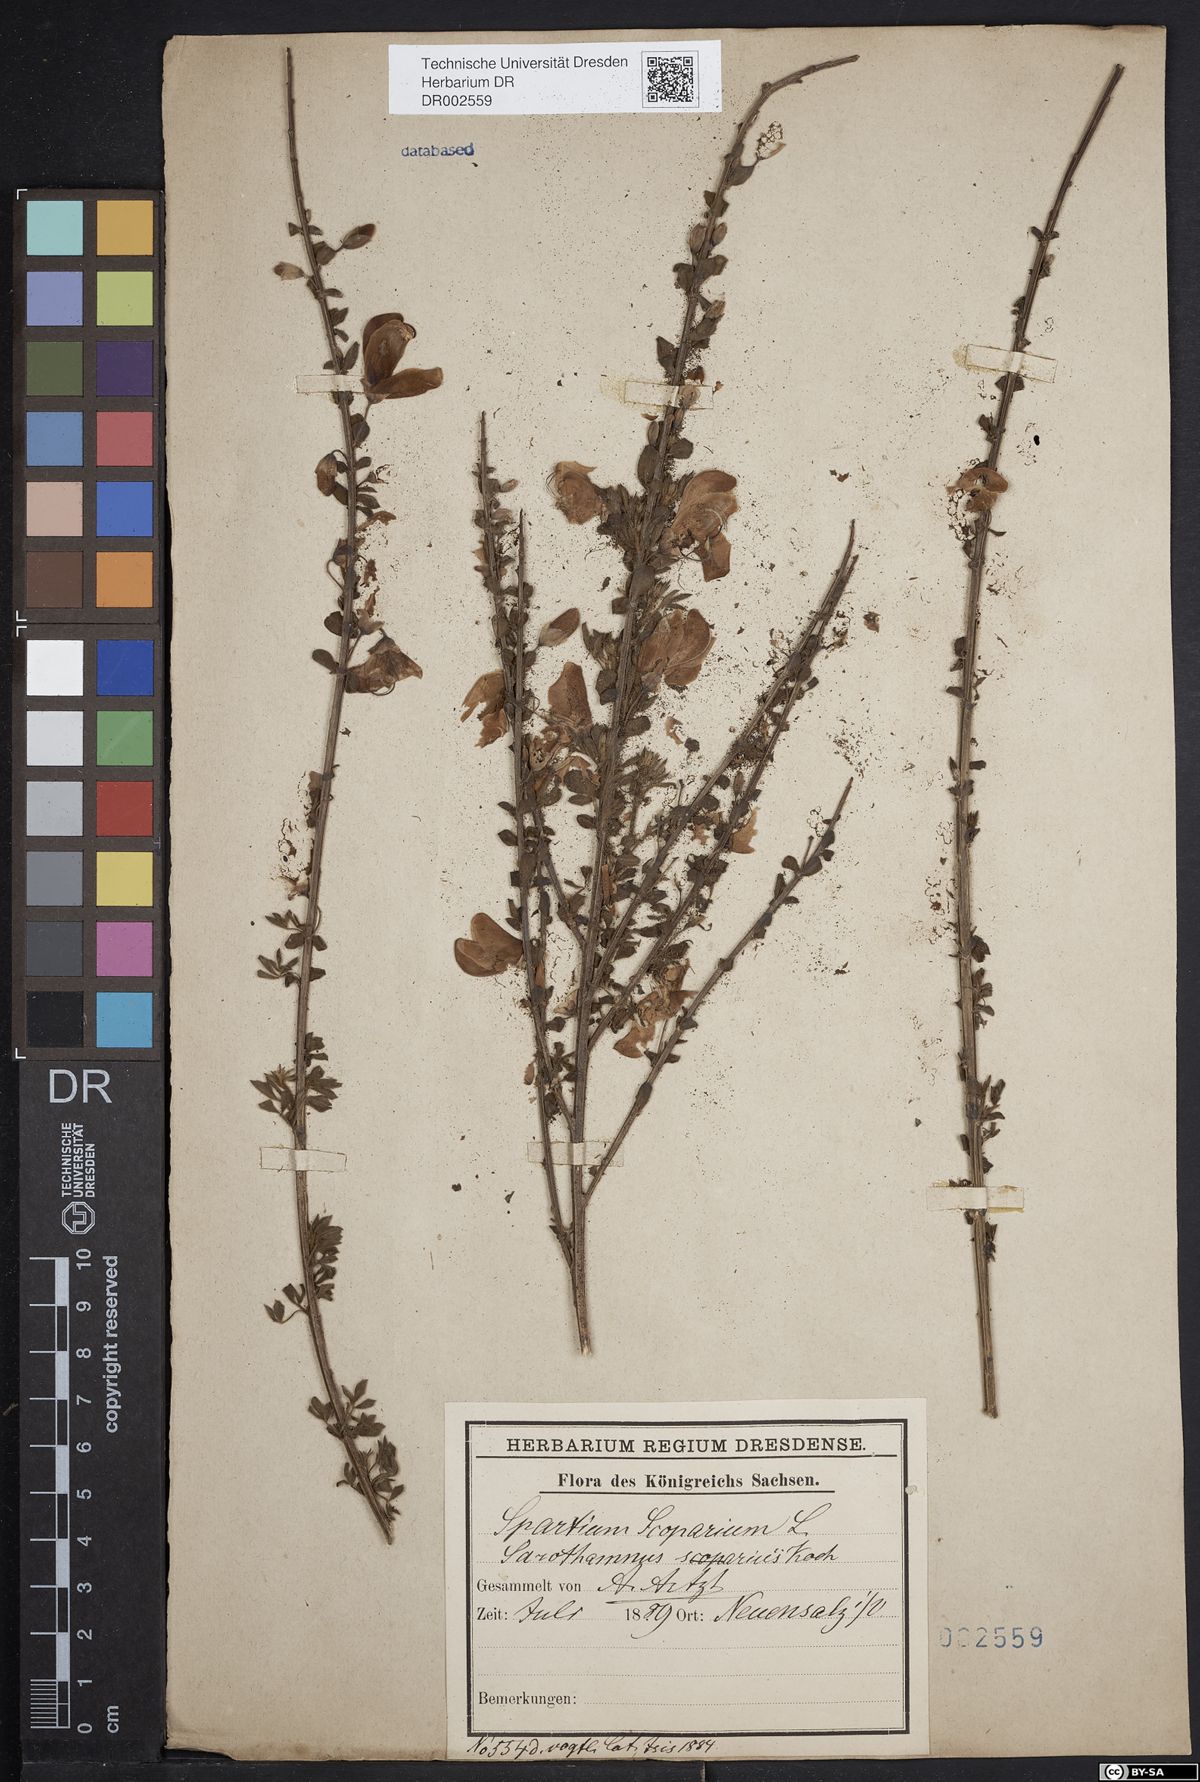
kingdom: Plantae
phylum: Tracheophyta
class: Magnoliopsida
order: Fabales
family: Fabaceae
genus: Cytisus
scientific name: Cytisus scoparius
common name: Scotch broom
